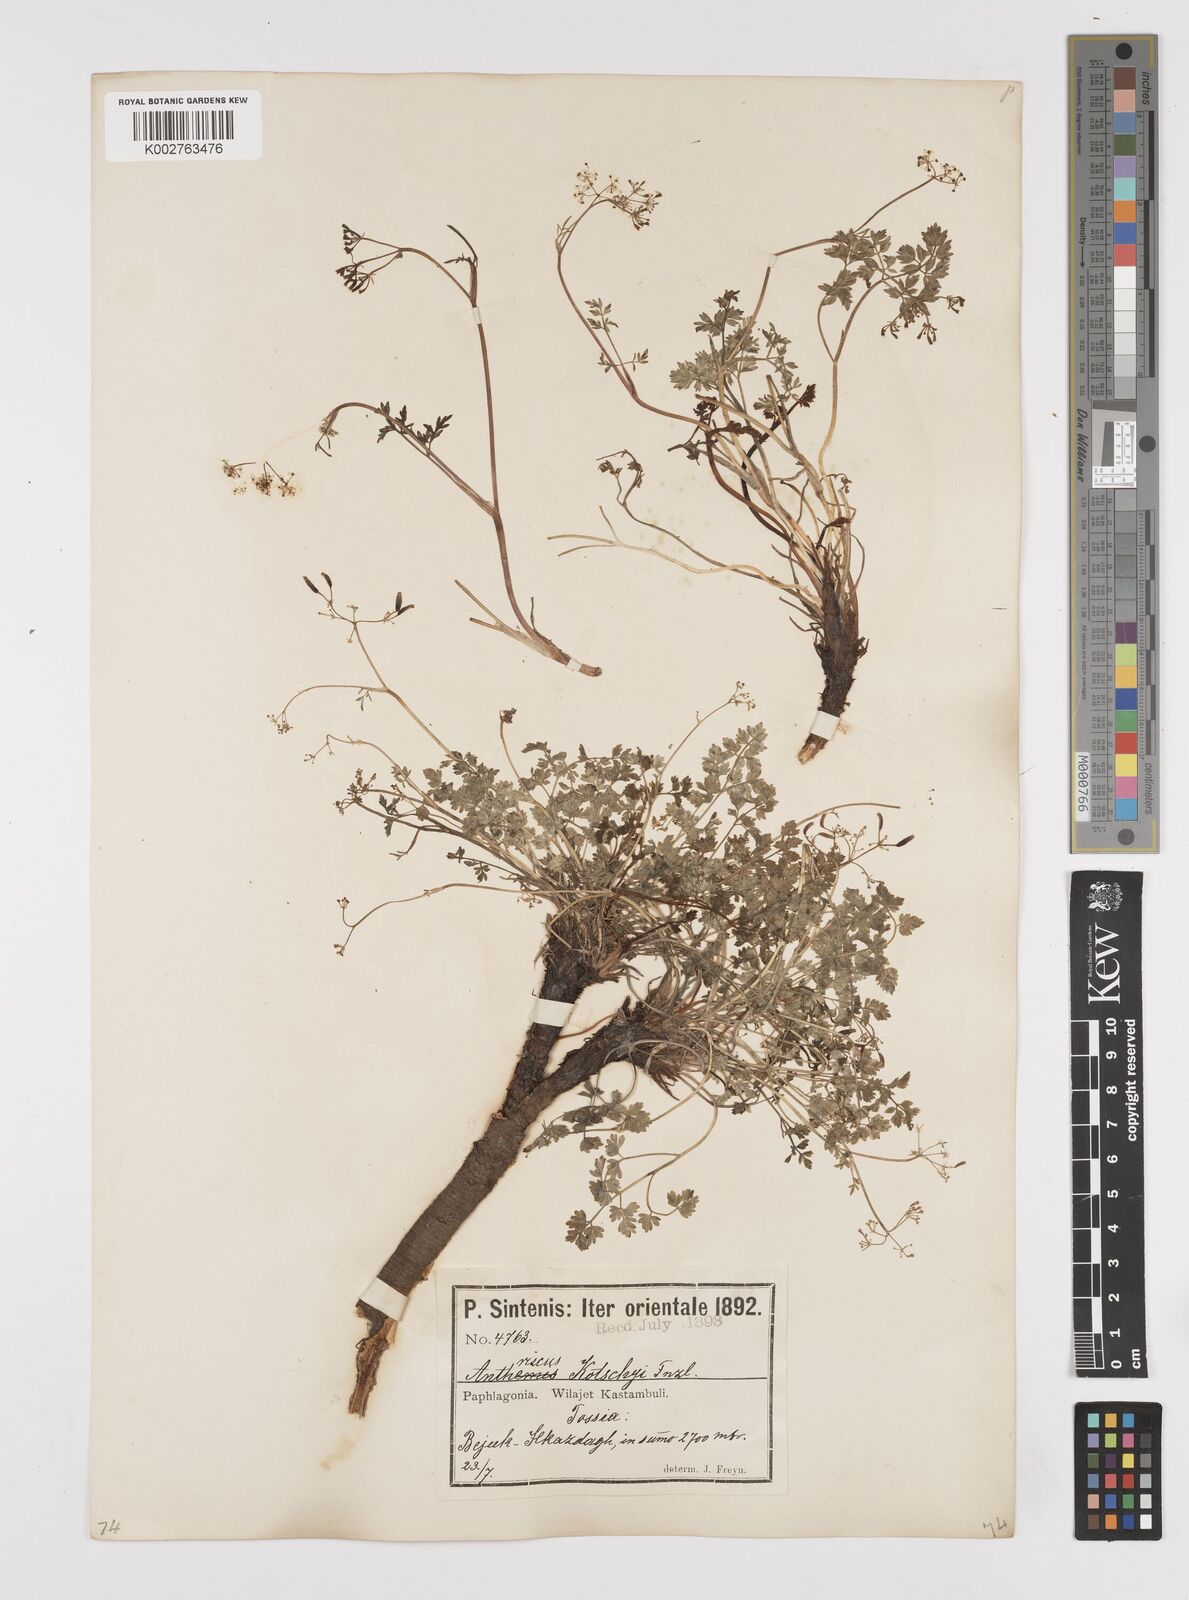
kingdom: Plantae
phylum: Tracheophyta
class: Magnoliopsida
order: Apiales
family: Apiaceae
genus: Anthriscus
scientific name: Anthriscus kotschyi
